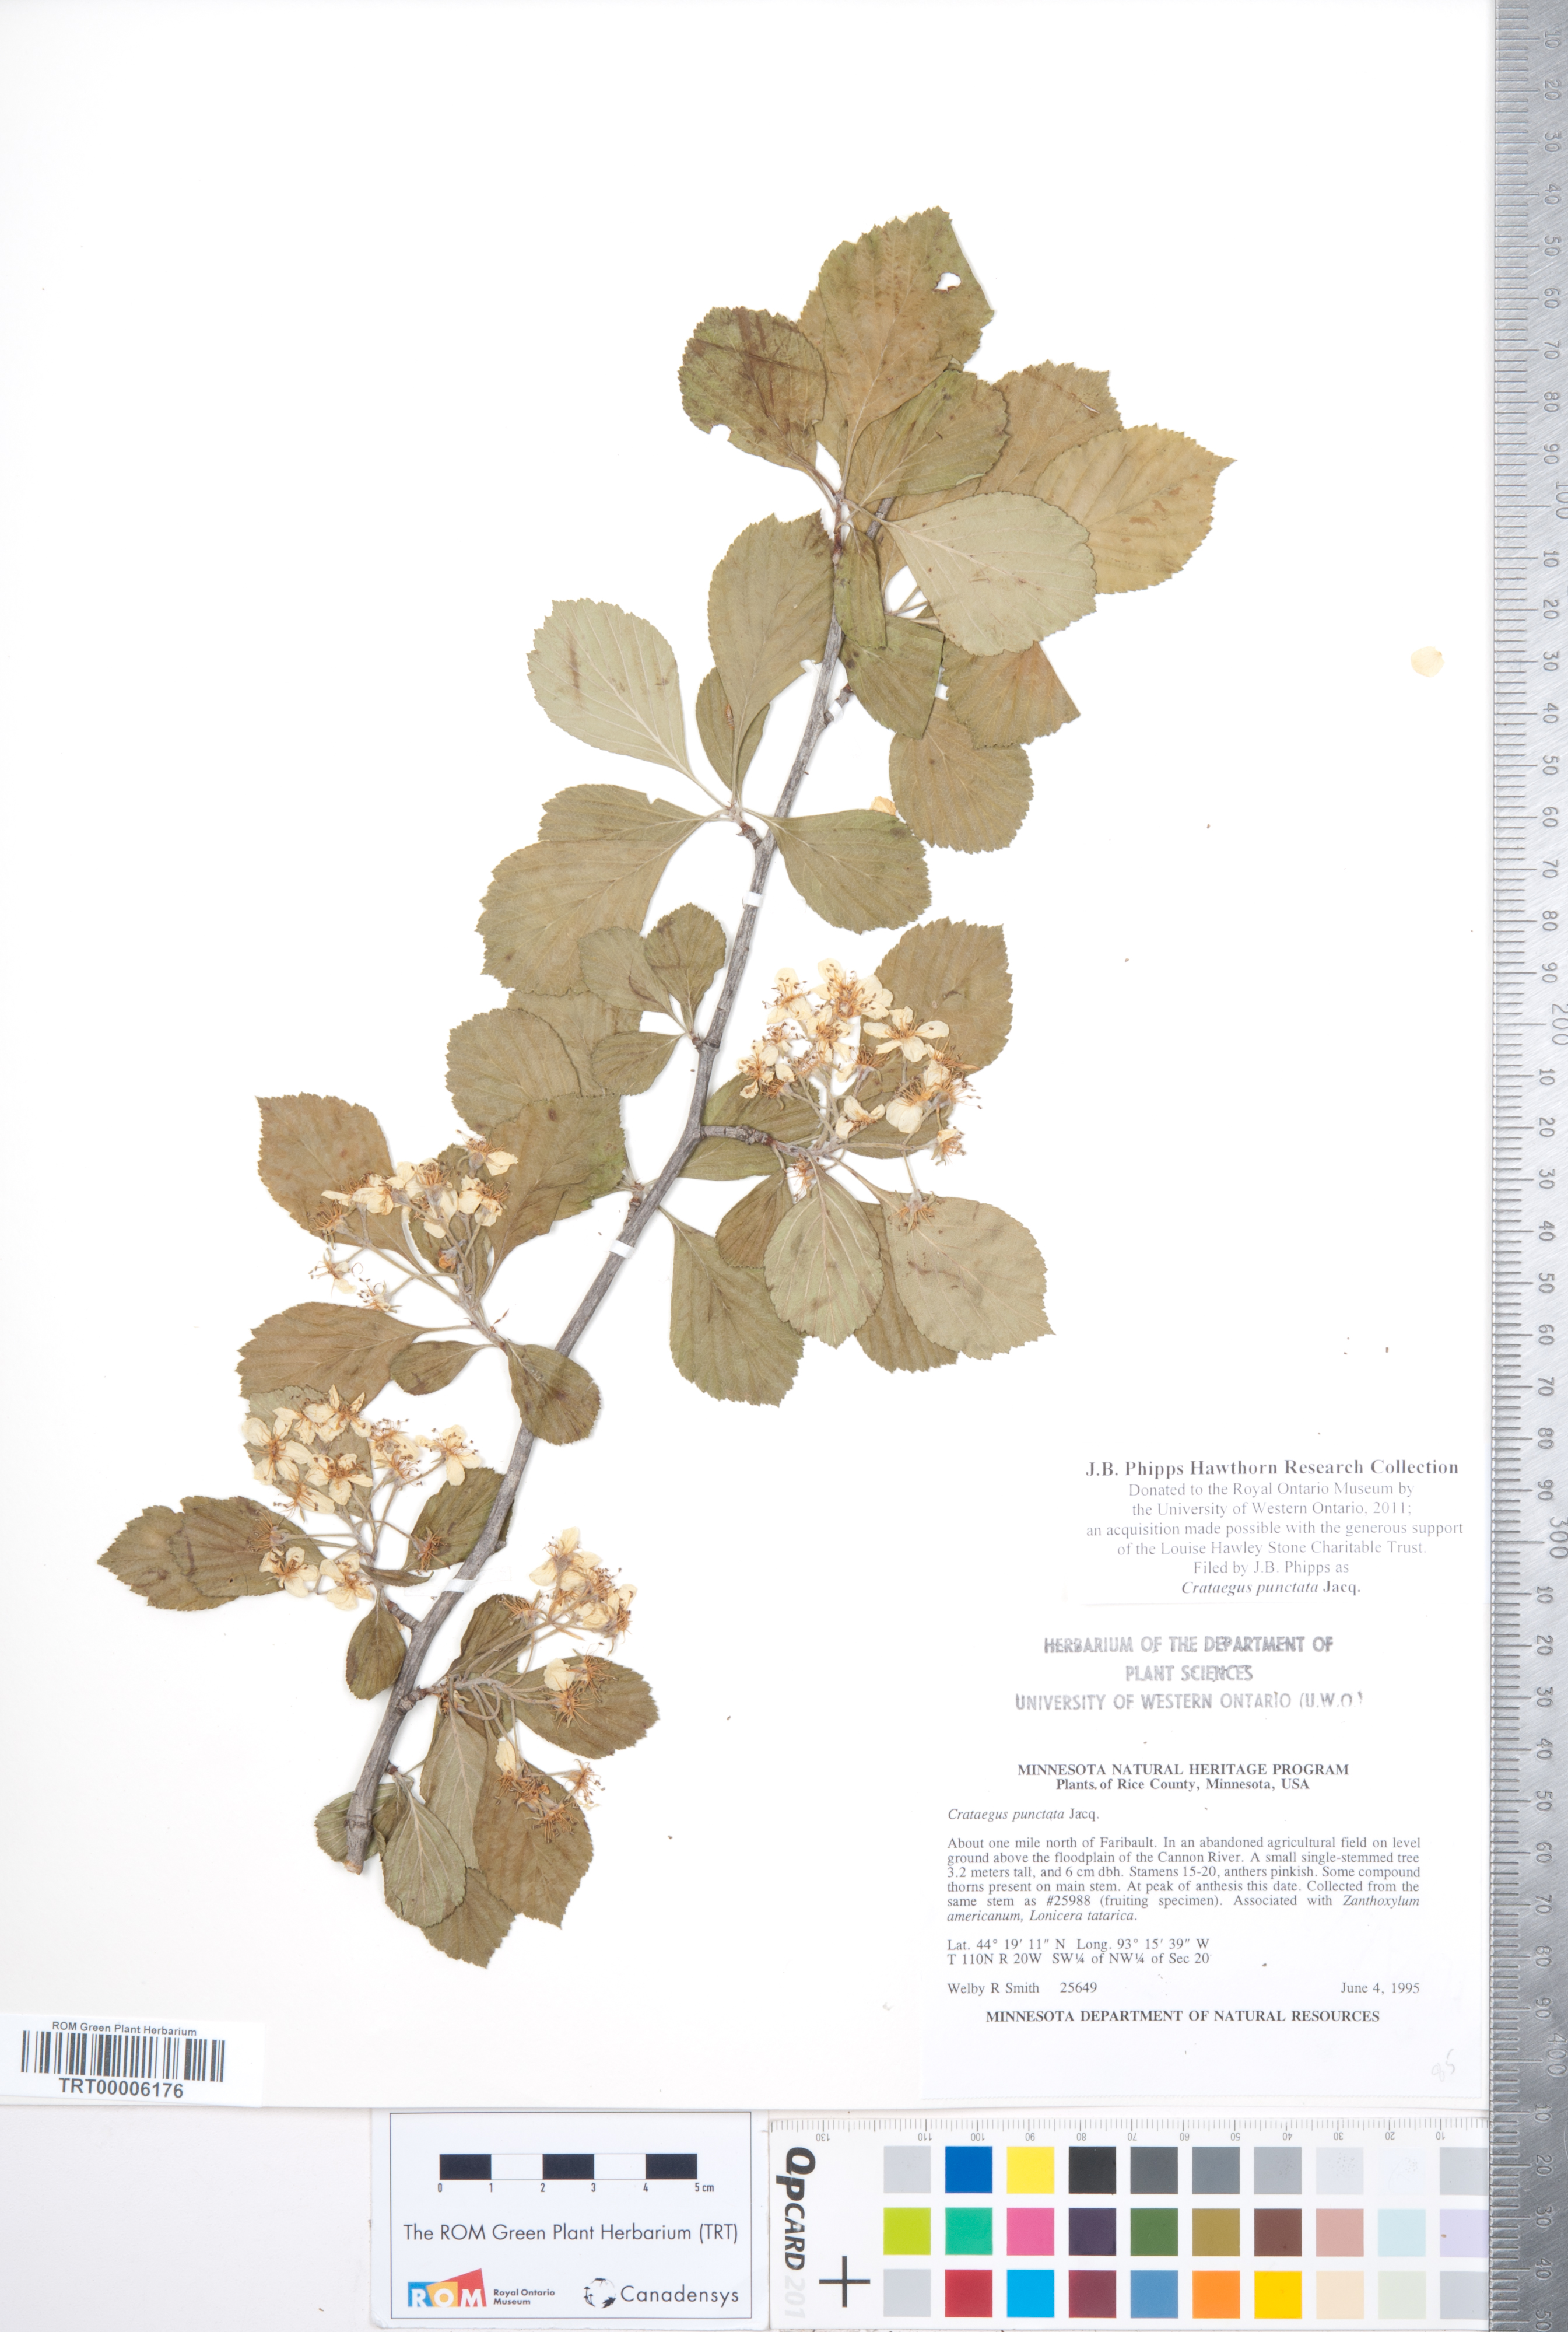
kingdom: Plantae
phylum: Tracheophyta
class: Magnoliopsida
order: Rosales
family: Rosaceae
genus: Crataegus
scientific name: Crataegus punctata
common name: Dotted hawthorn
